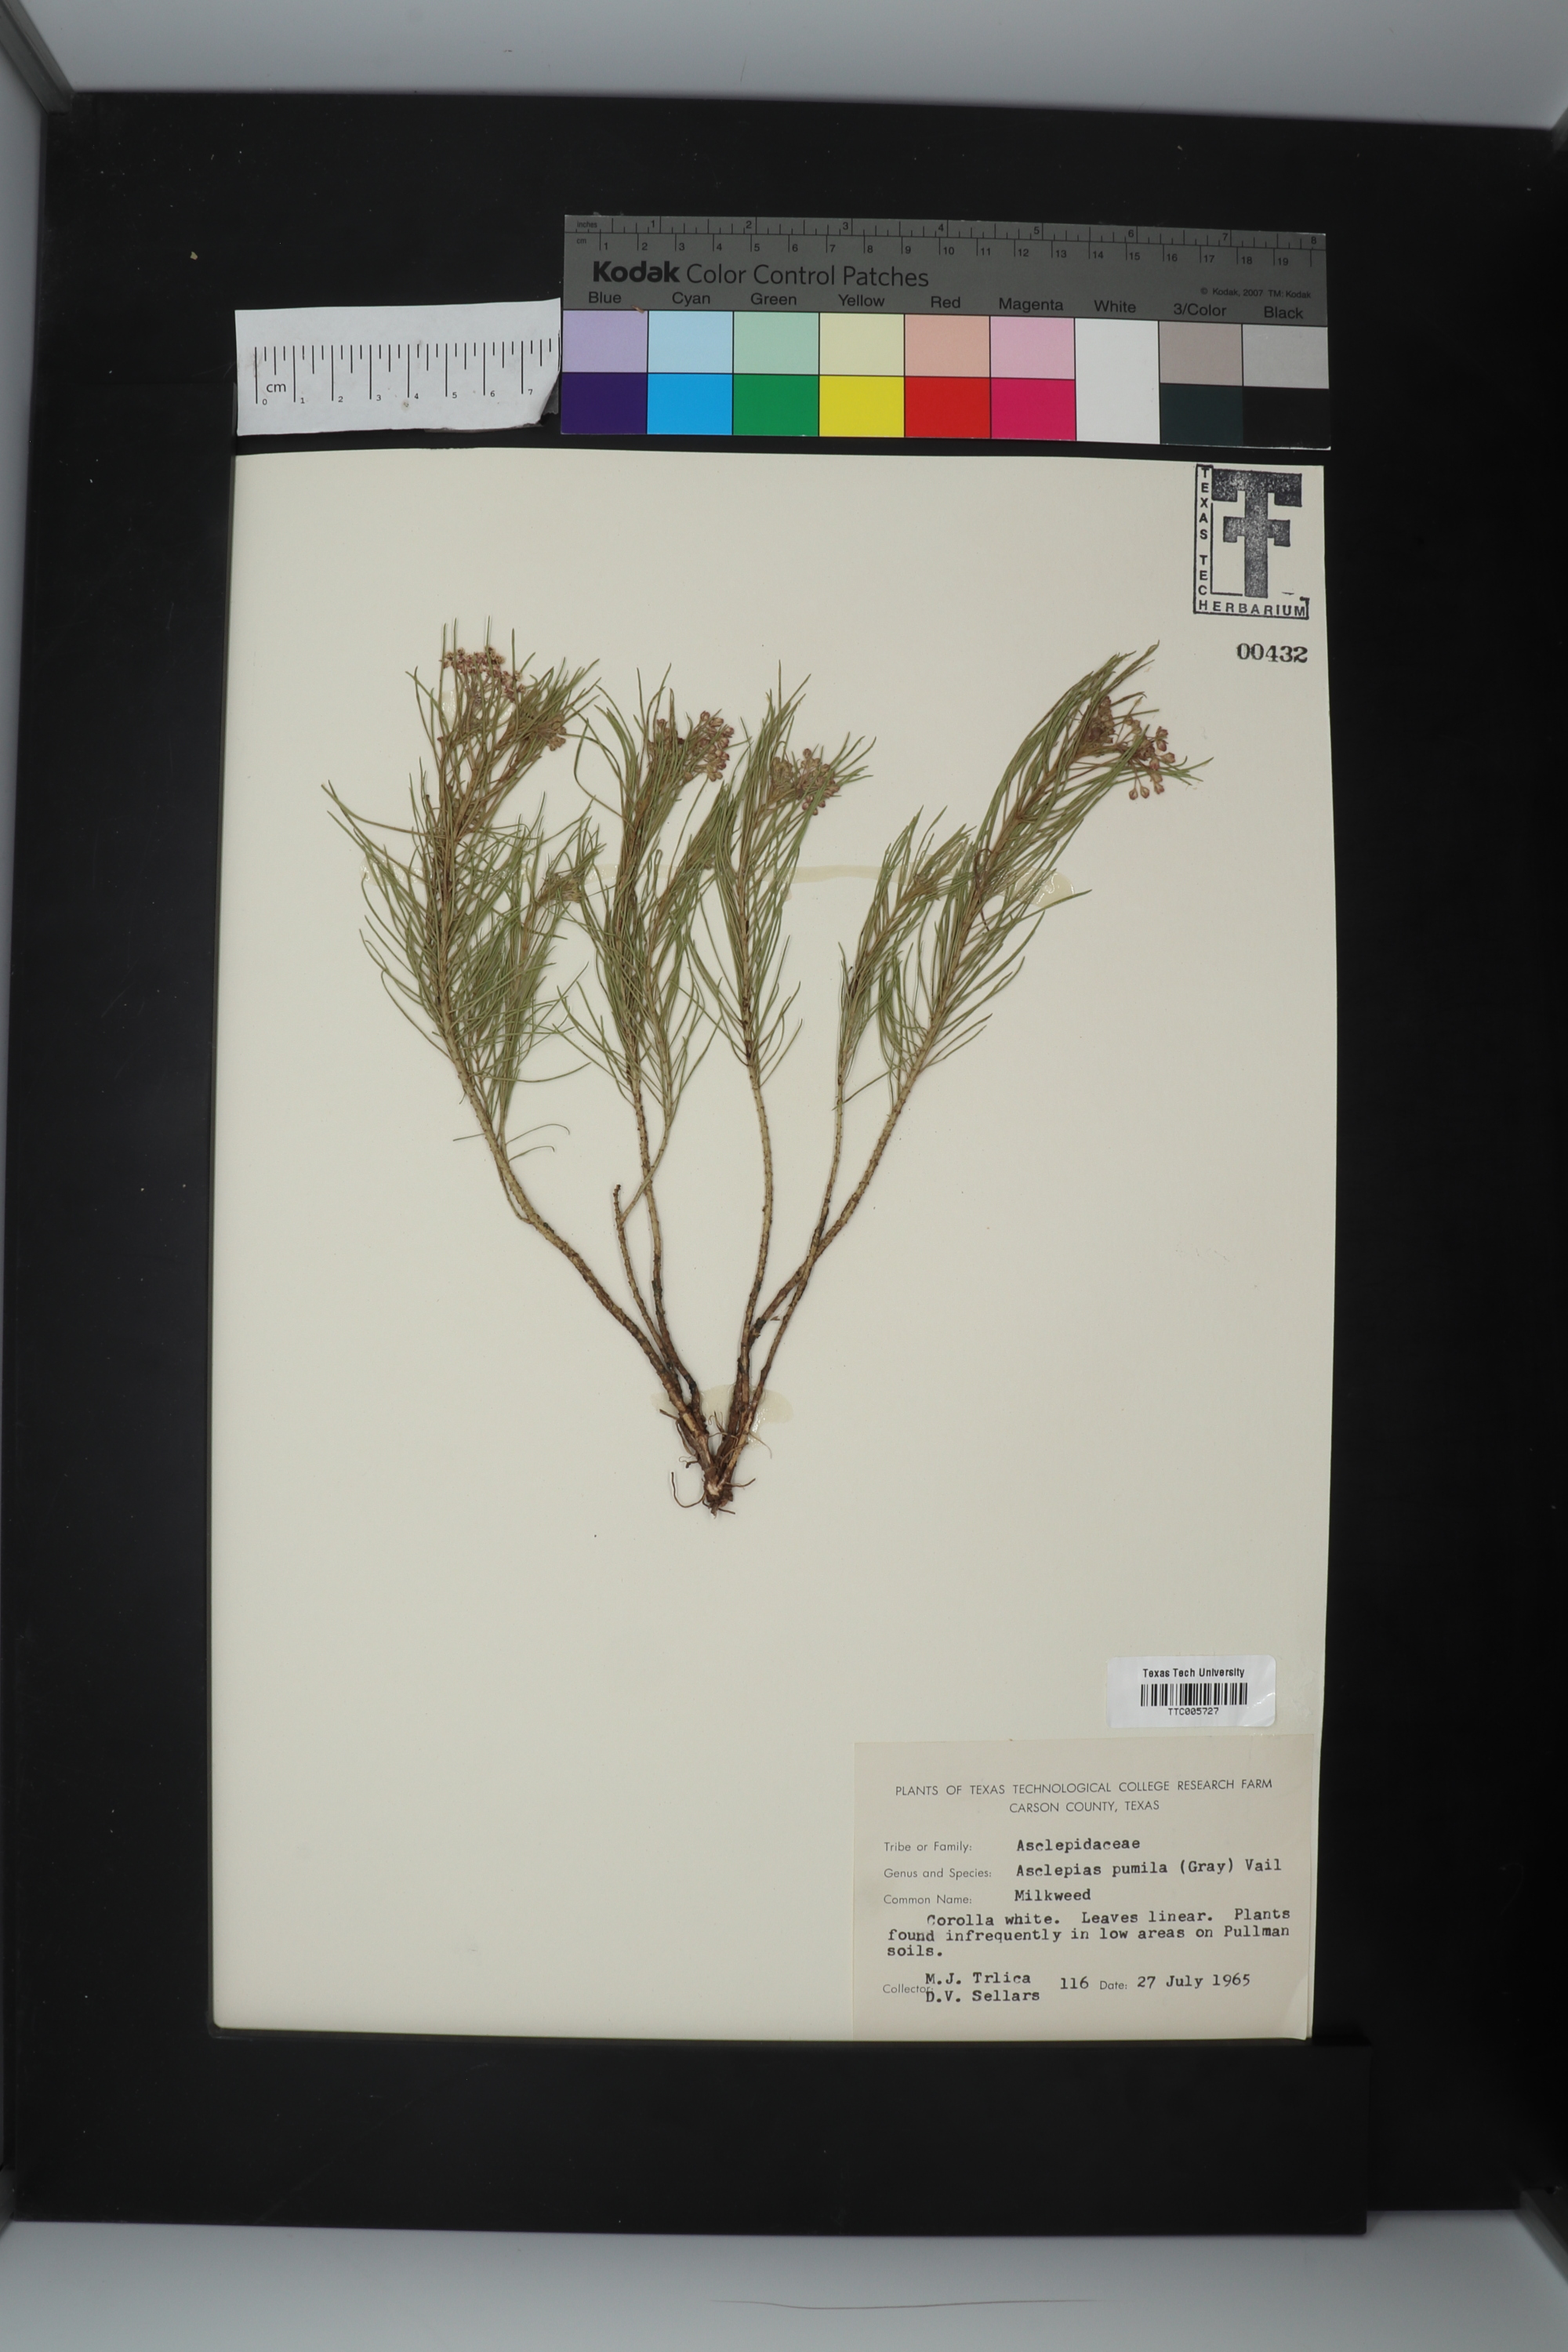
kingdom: Plantae
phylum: Tracheophyta
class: Magnoliopsida
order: Gentianales
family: Apocynaceae
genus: Asclepias
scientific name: Asclepias pumila
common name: Dwarf milkweed
